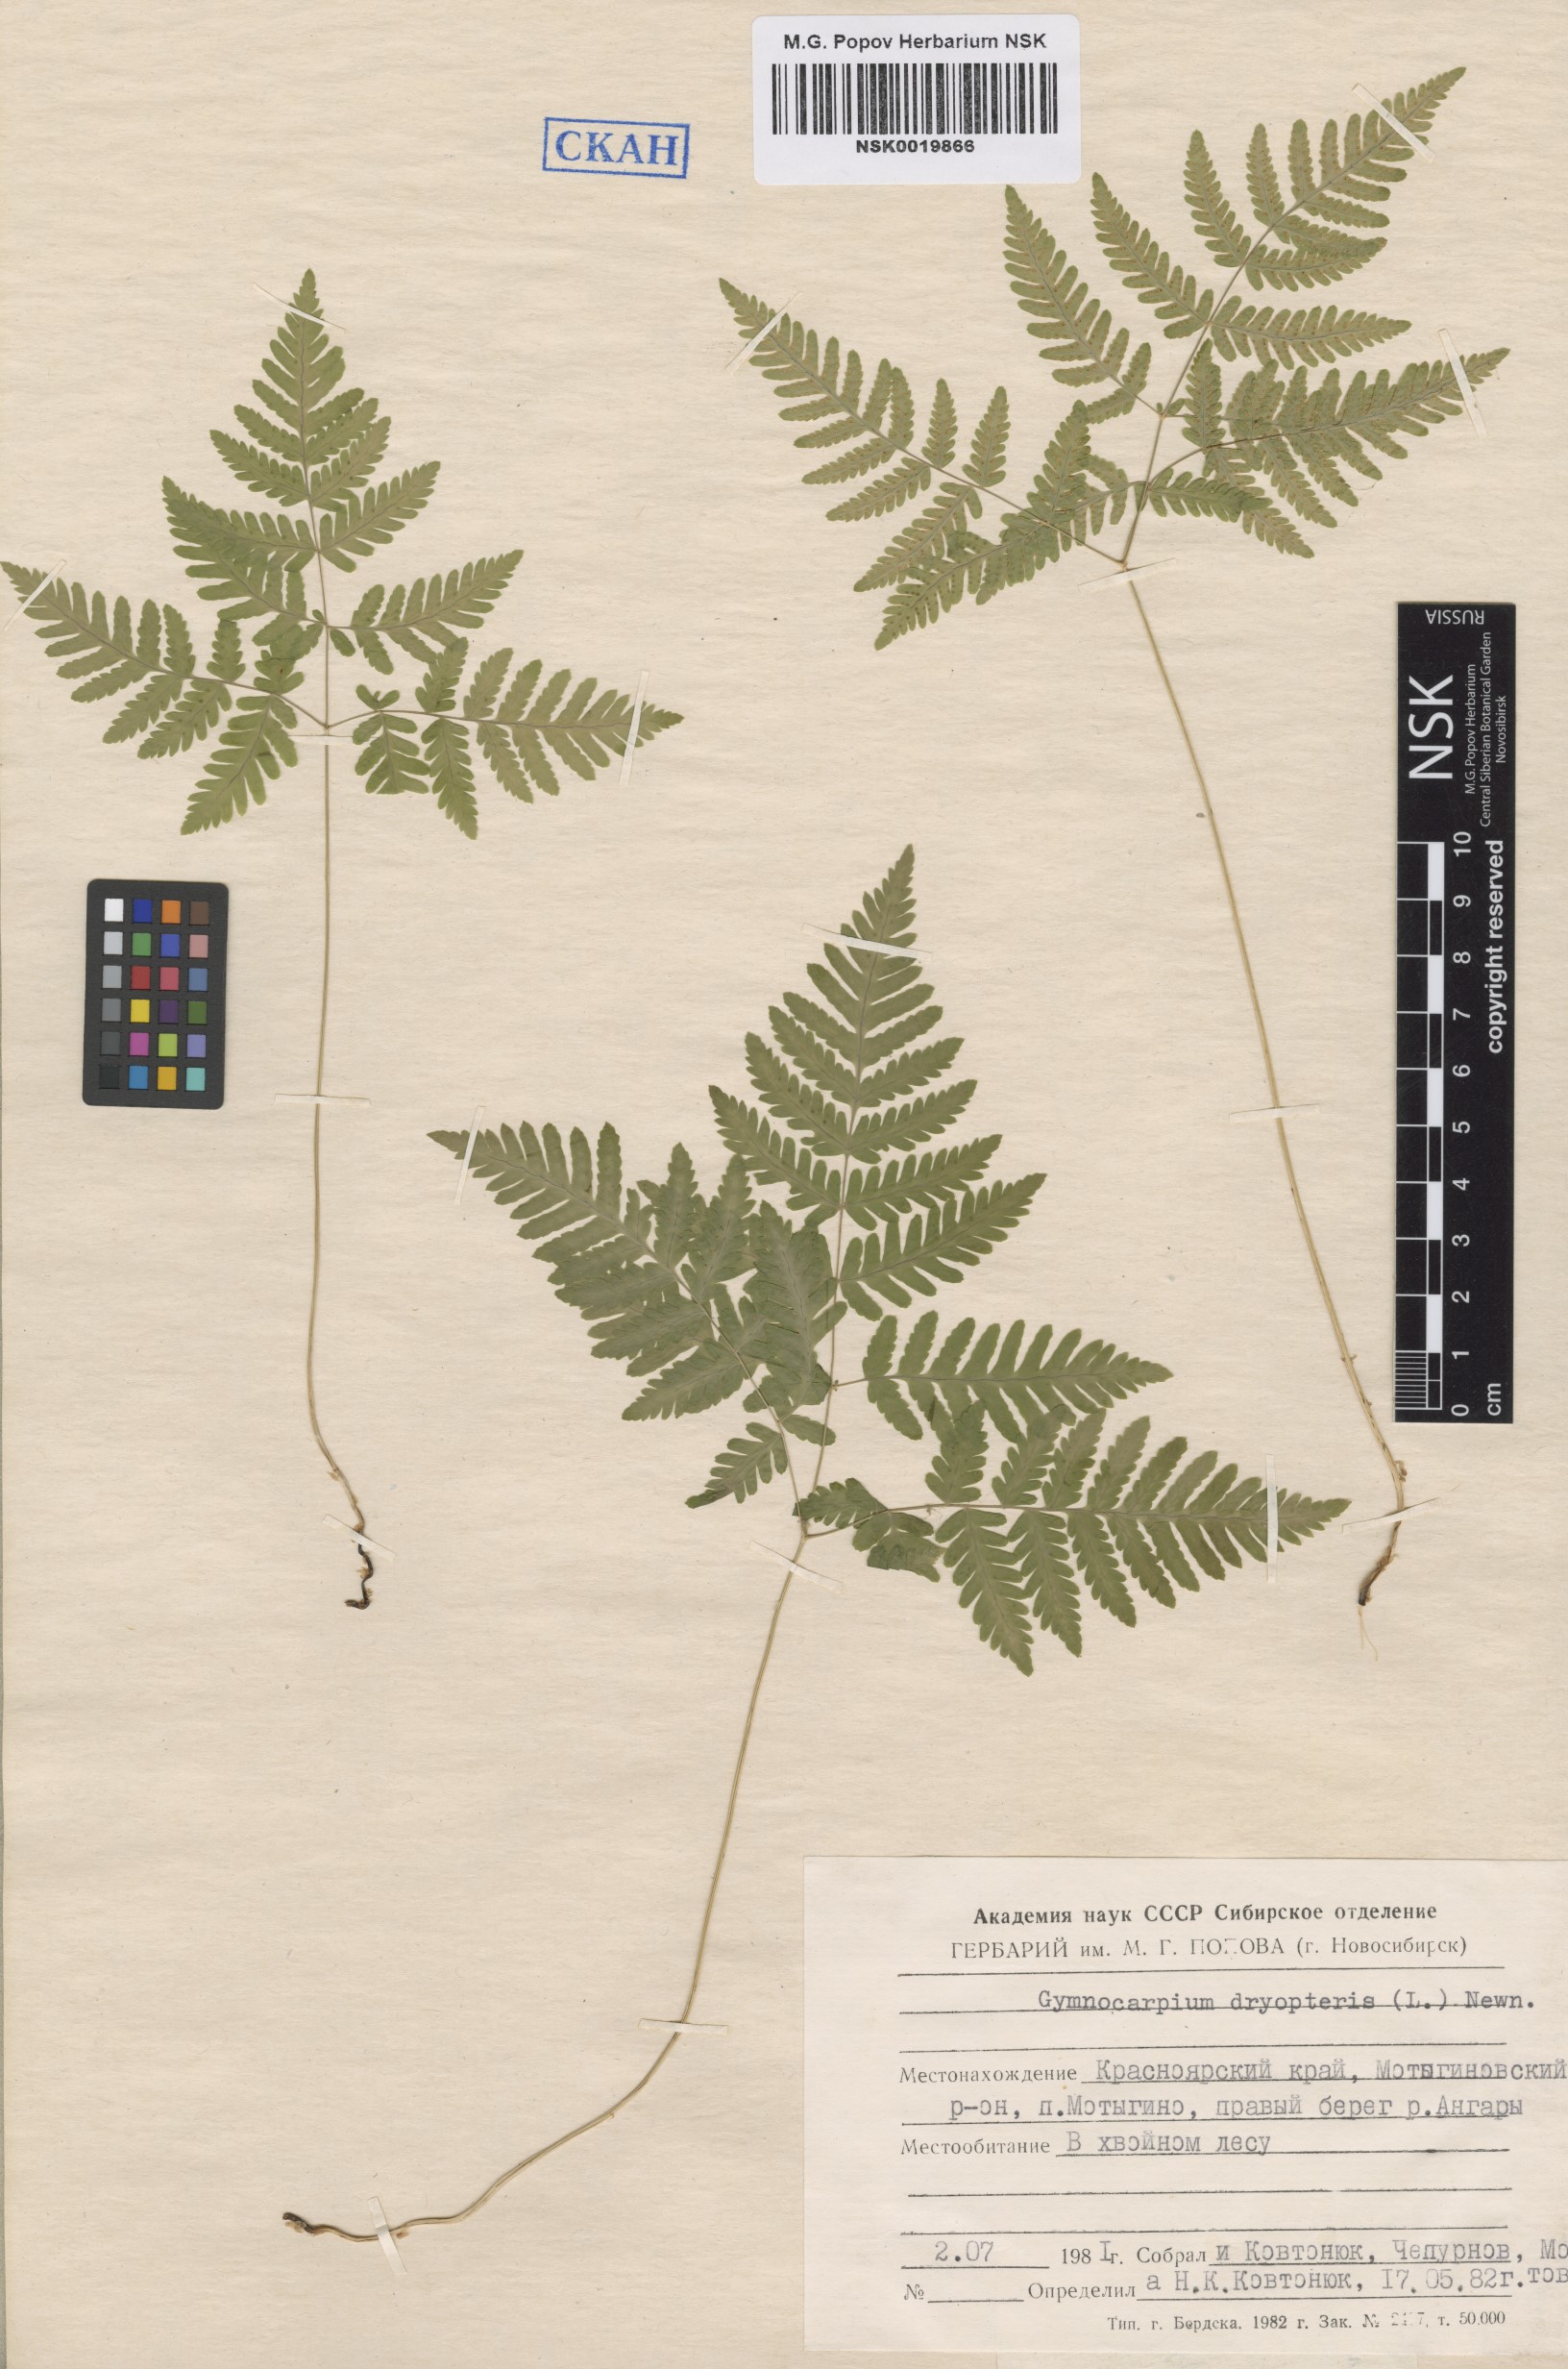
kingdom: Plantae
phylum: Tracheophyta
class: Polypodiopsida
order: Polypodiales
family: Cystopteridaceae
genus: Gymnocarpium
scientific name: Gymnocarpium dryopteris
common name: Oak fern
